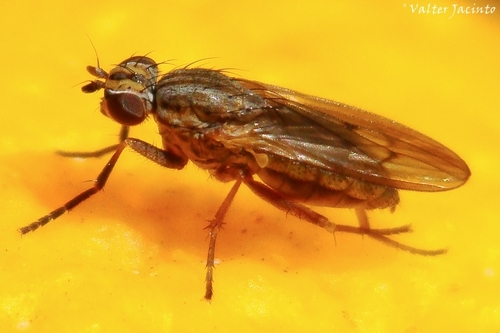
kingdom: Animalia
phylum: Arthropoda
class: Insecta
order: Diptera
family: Sciomyzidae
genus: Pherbellia
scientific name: Pherbellia cinerella
